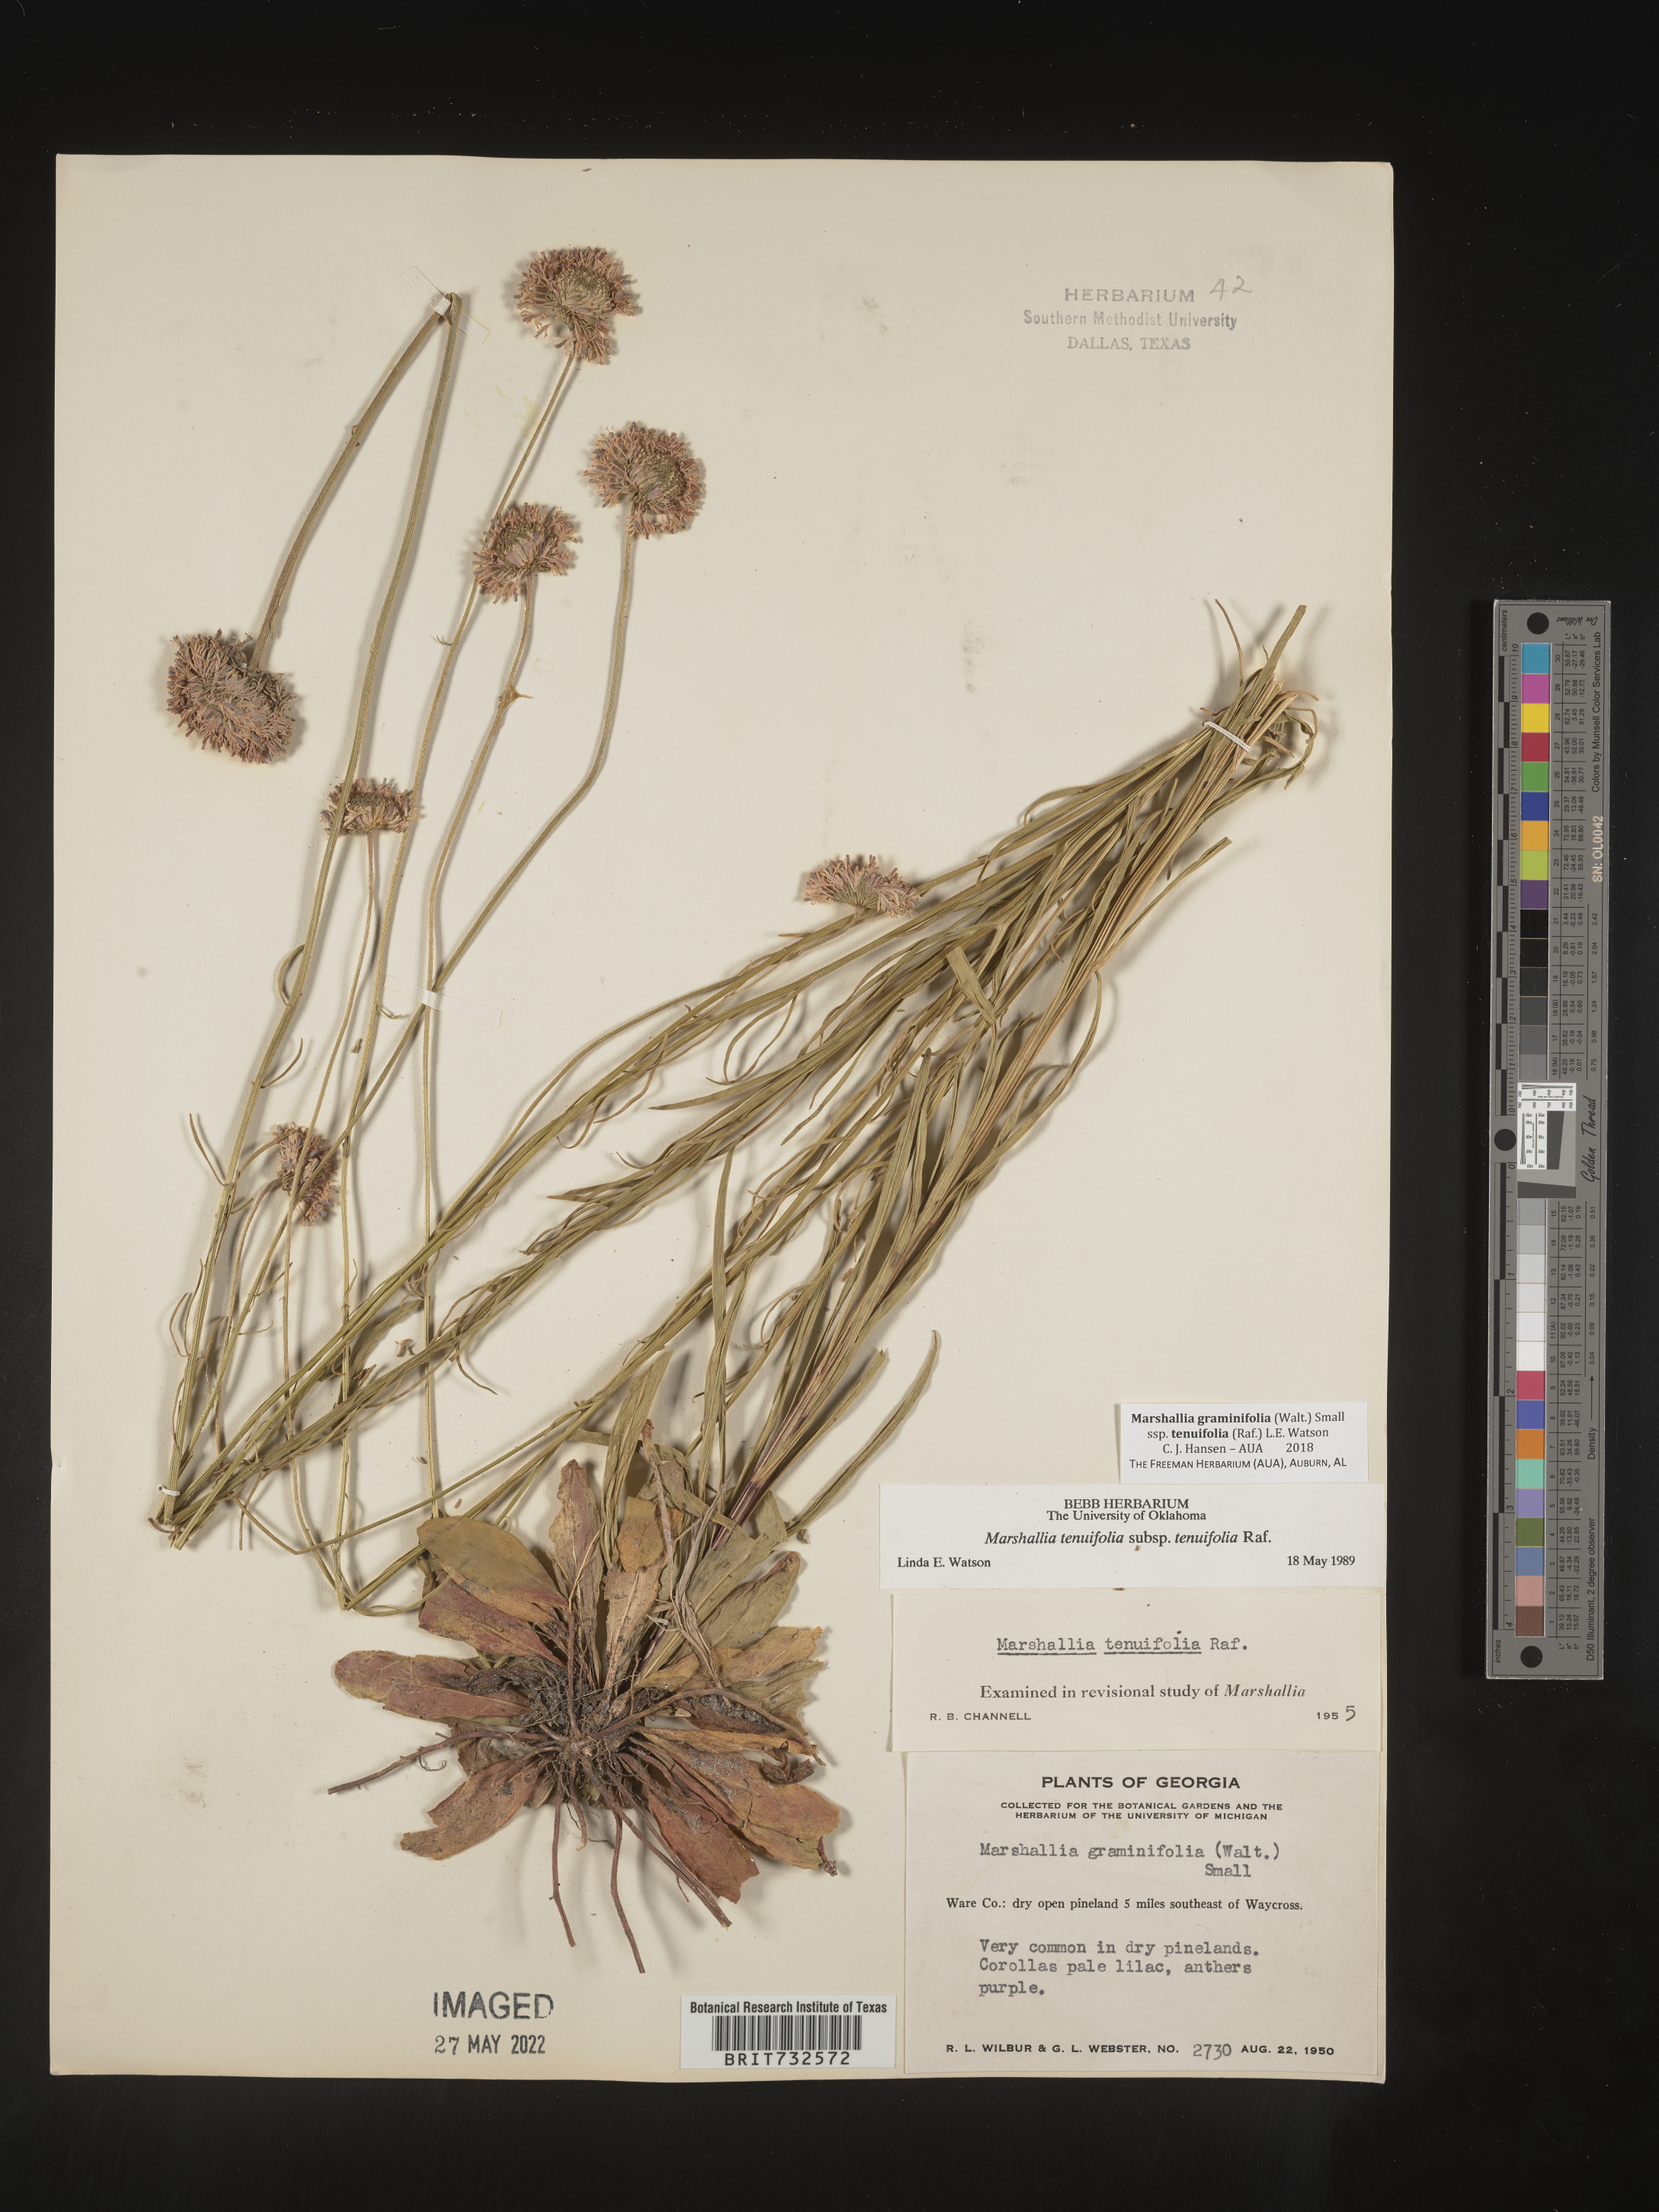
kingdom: Plantae
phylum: Tracheophyta
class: Magnoliopsida
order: Asterales
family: Asteraceae
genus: Marshallia
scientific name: Marshallia graminifolia
